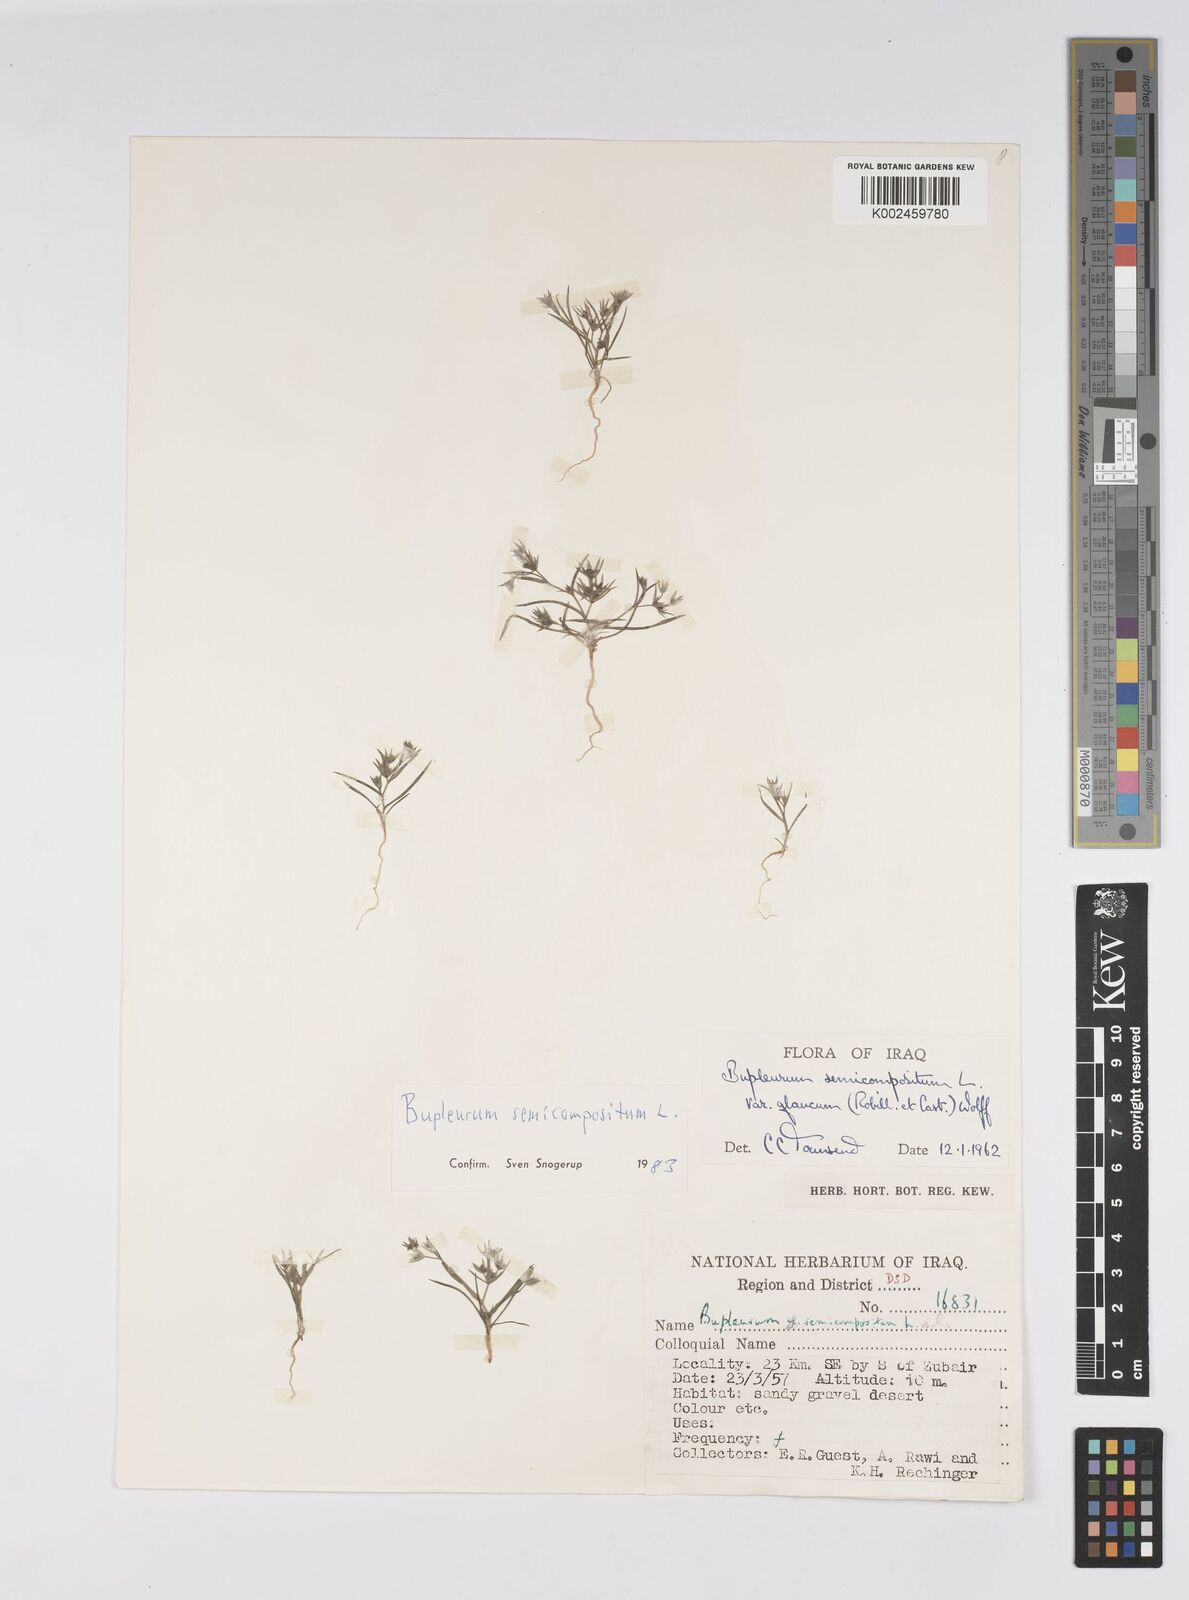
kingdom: Plantae
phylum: Tracheophyta
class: Magnoliopsida
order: Apiales
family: Apiaceae
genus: Bupleurum
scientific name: Bupleurum semicompositum
